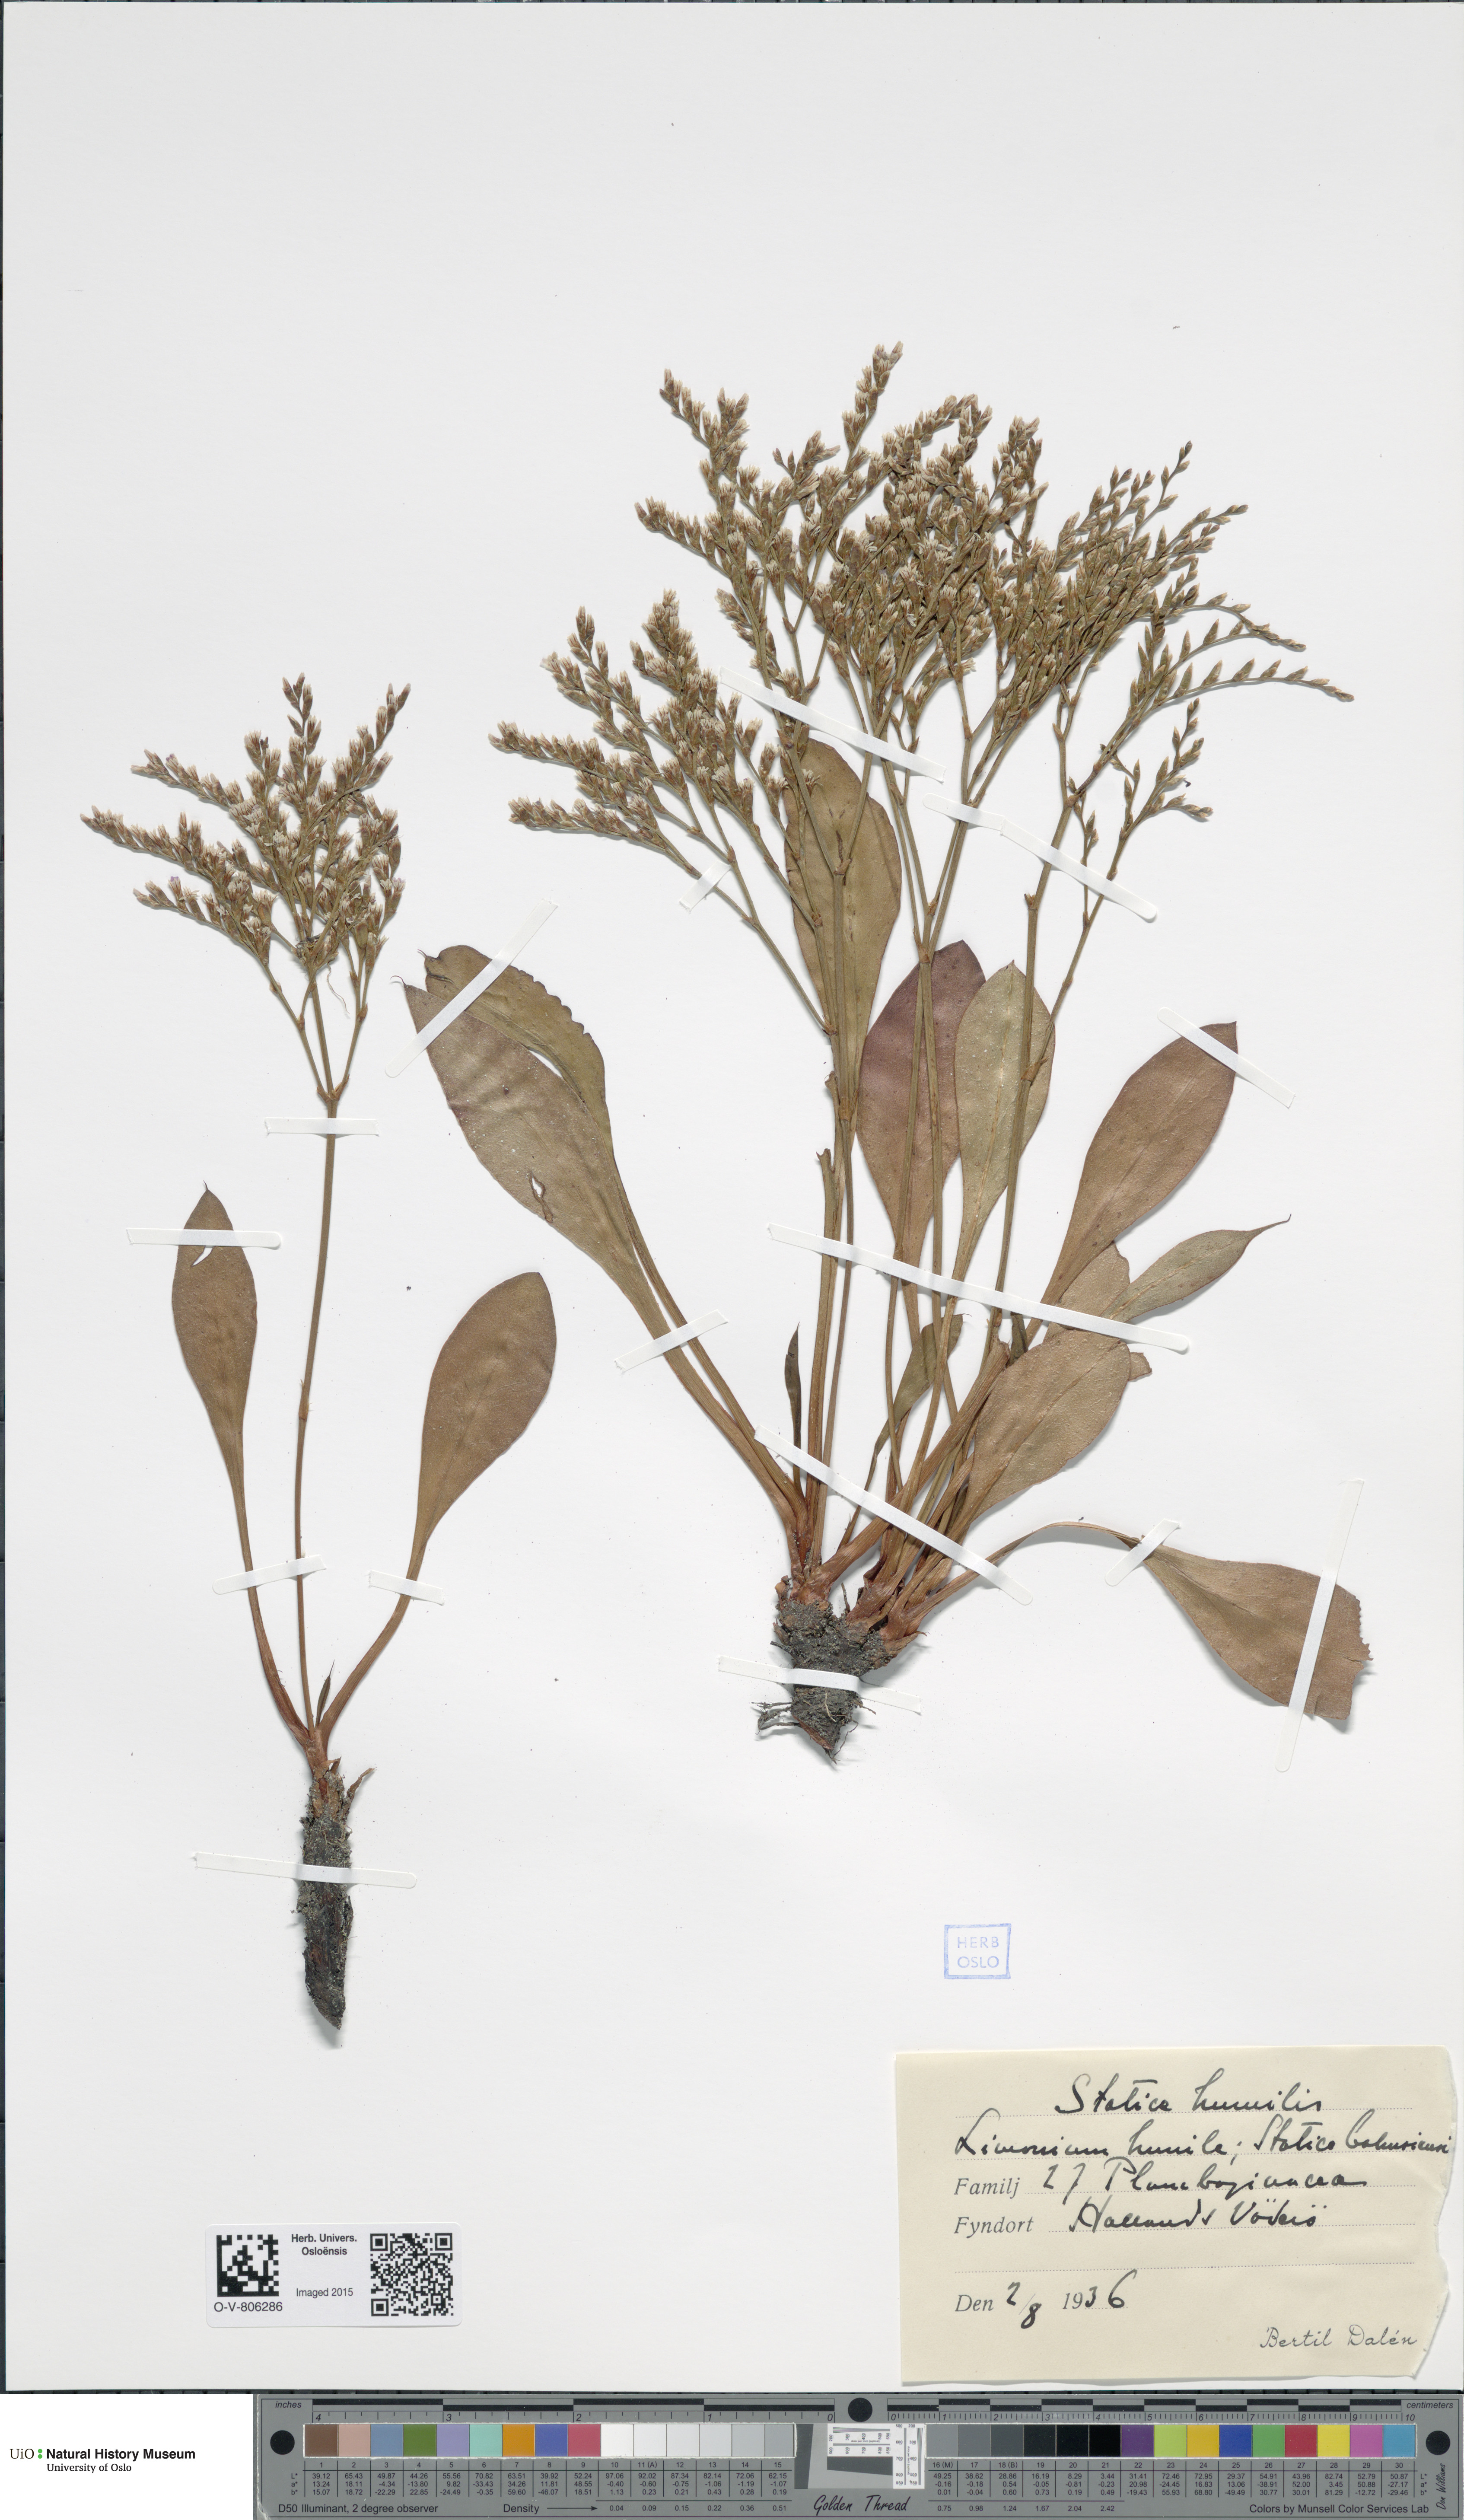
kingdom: Plantae
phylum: Tracheophyta
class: Magnoliopsida
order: Caryophyllales
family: Plumbaginaceae
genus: Limonium
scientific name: Limonium humile
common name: Lax-flowered sea-lavender
